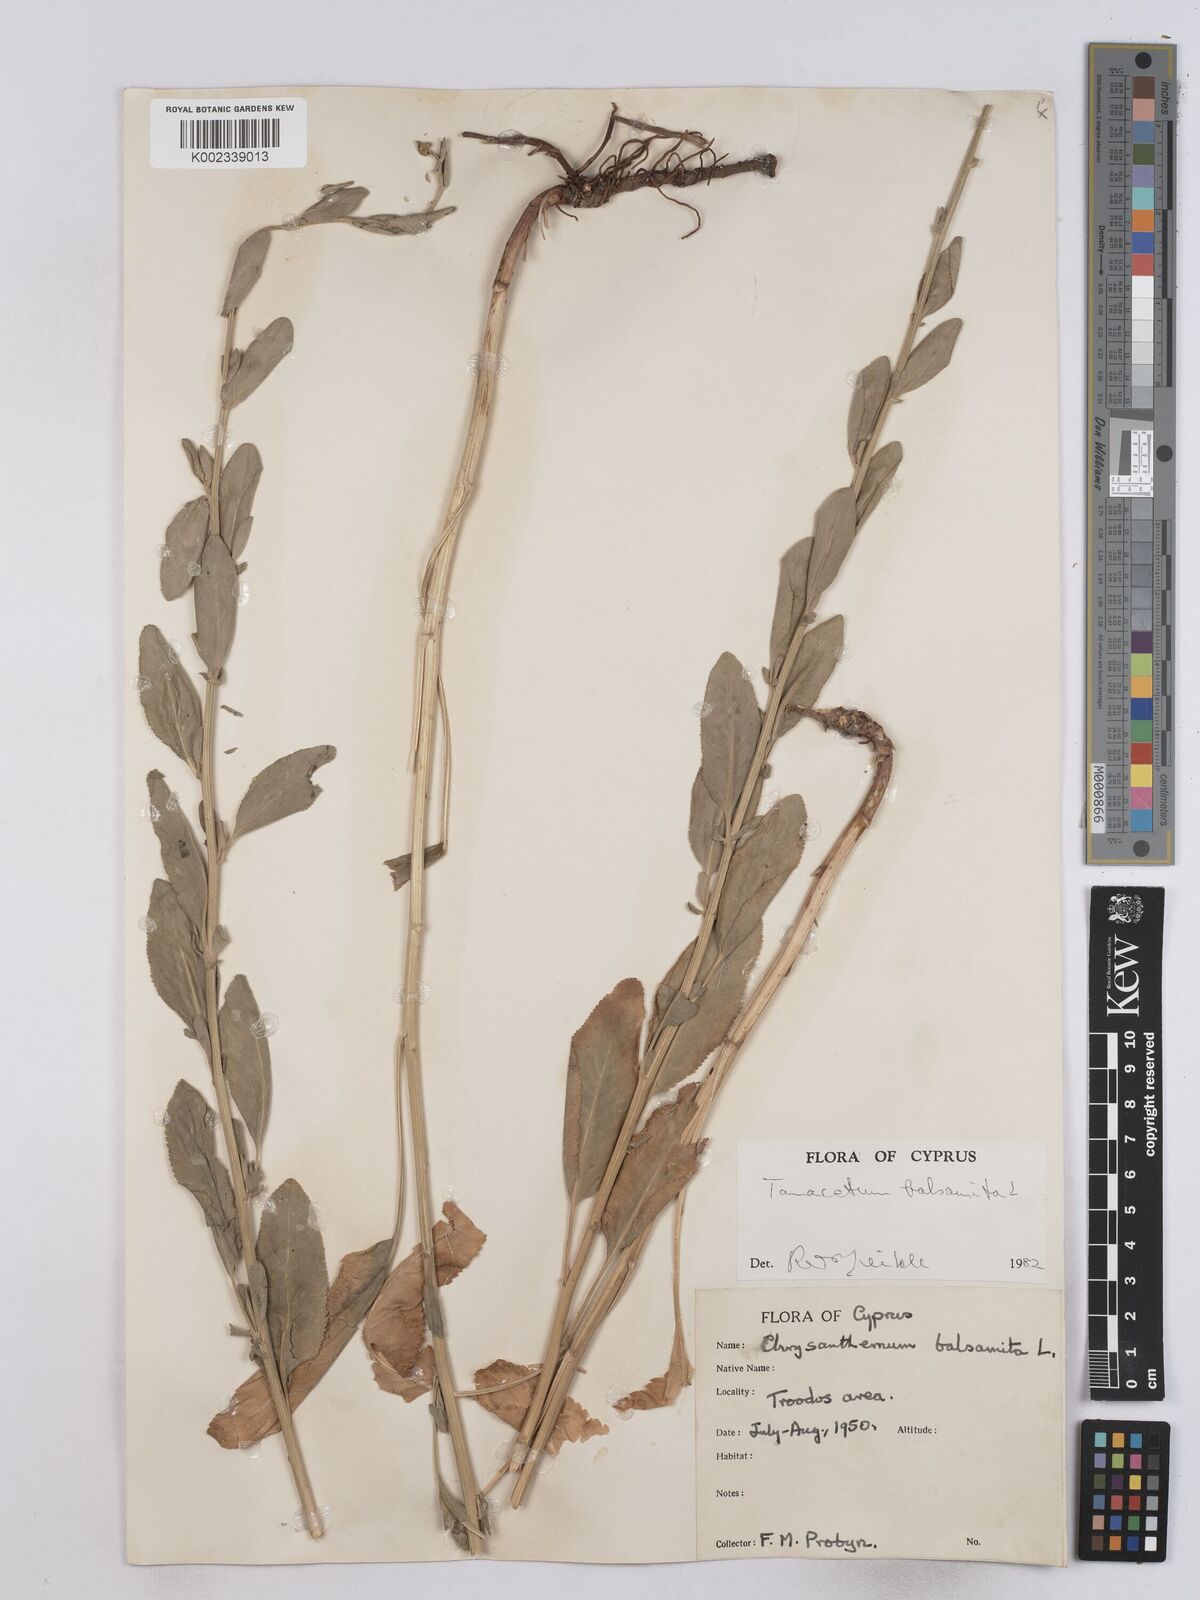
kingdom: Plantae
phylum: Tracheophyta
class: Magnoliopsida
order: Asterales
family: Asteraceae
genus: Tanacetum
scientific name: Tanacetum balsamita
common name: Costmary
